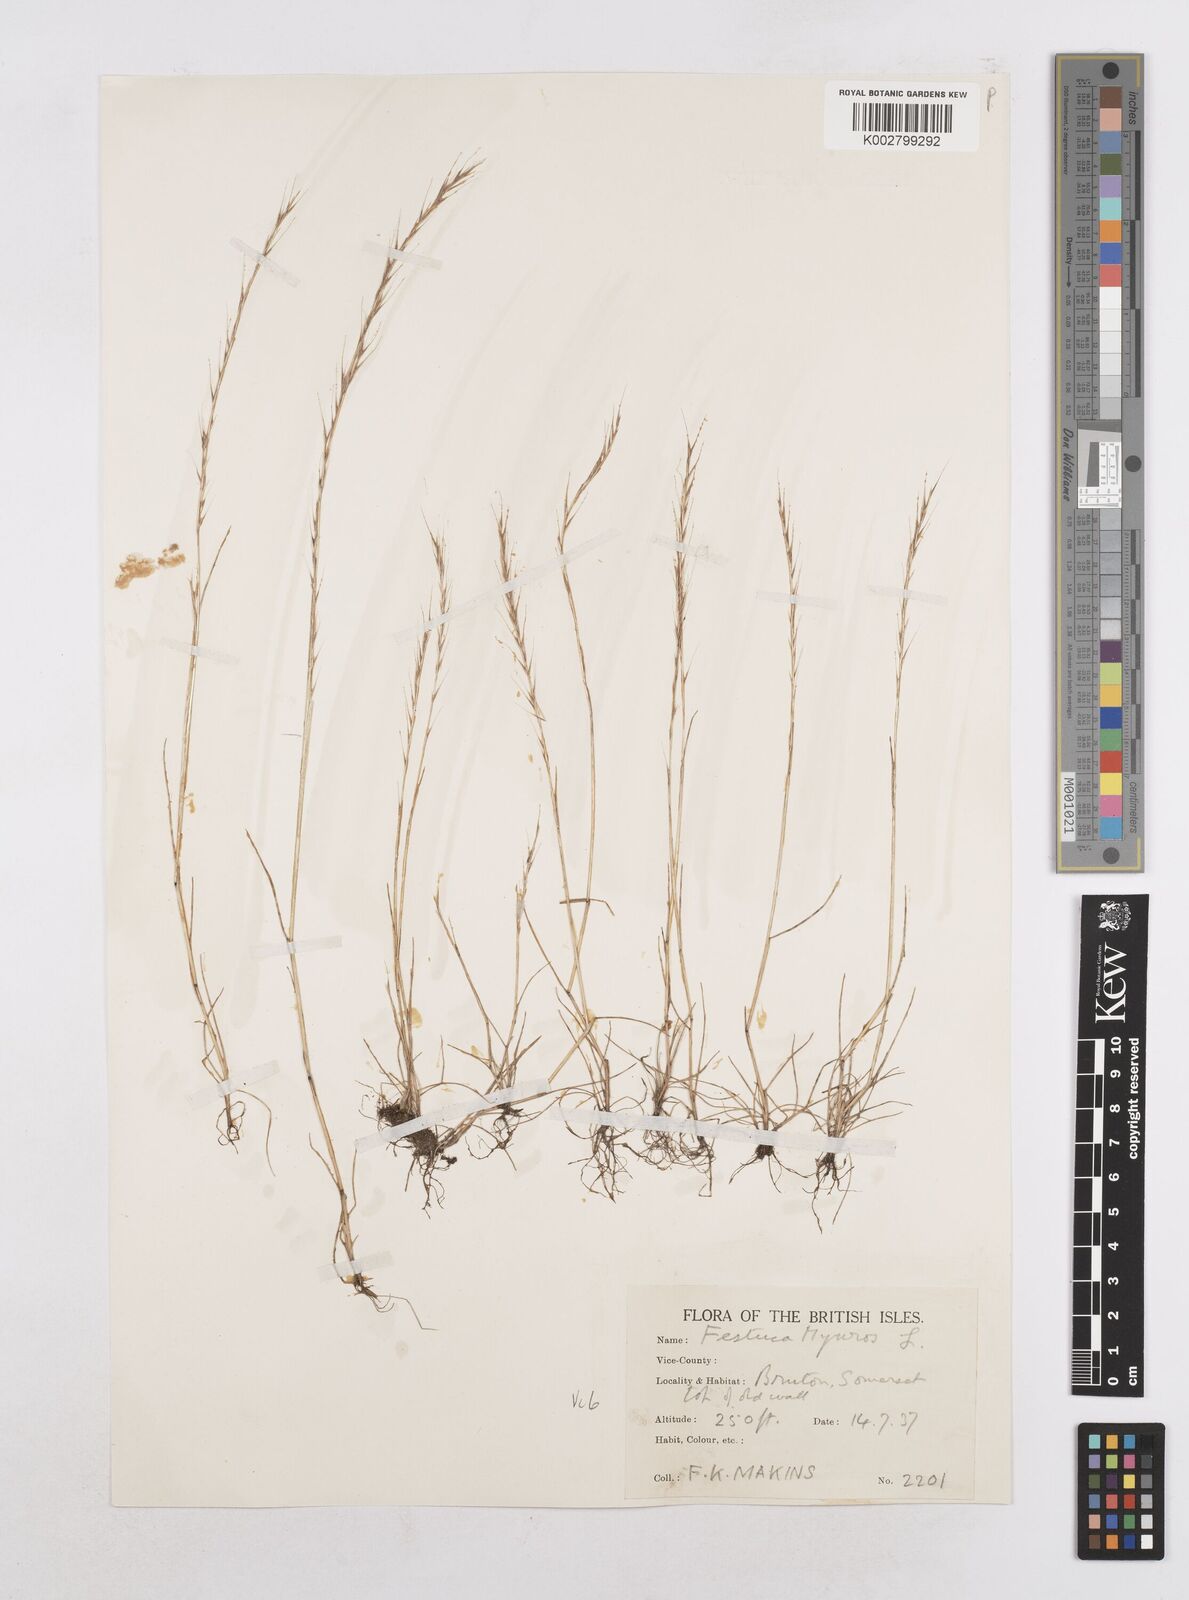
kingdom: Plantae
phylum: Tracheophyta
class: Liliopsida
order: Poales
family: Poaceae
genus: Festuca
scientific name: Festuca myuros
